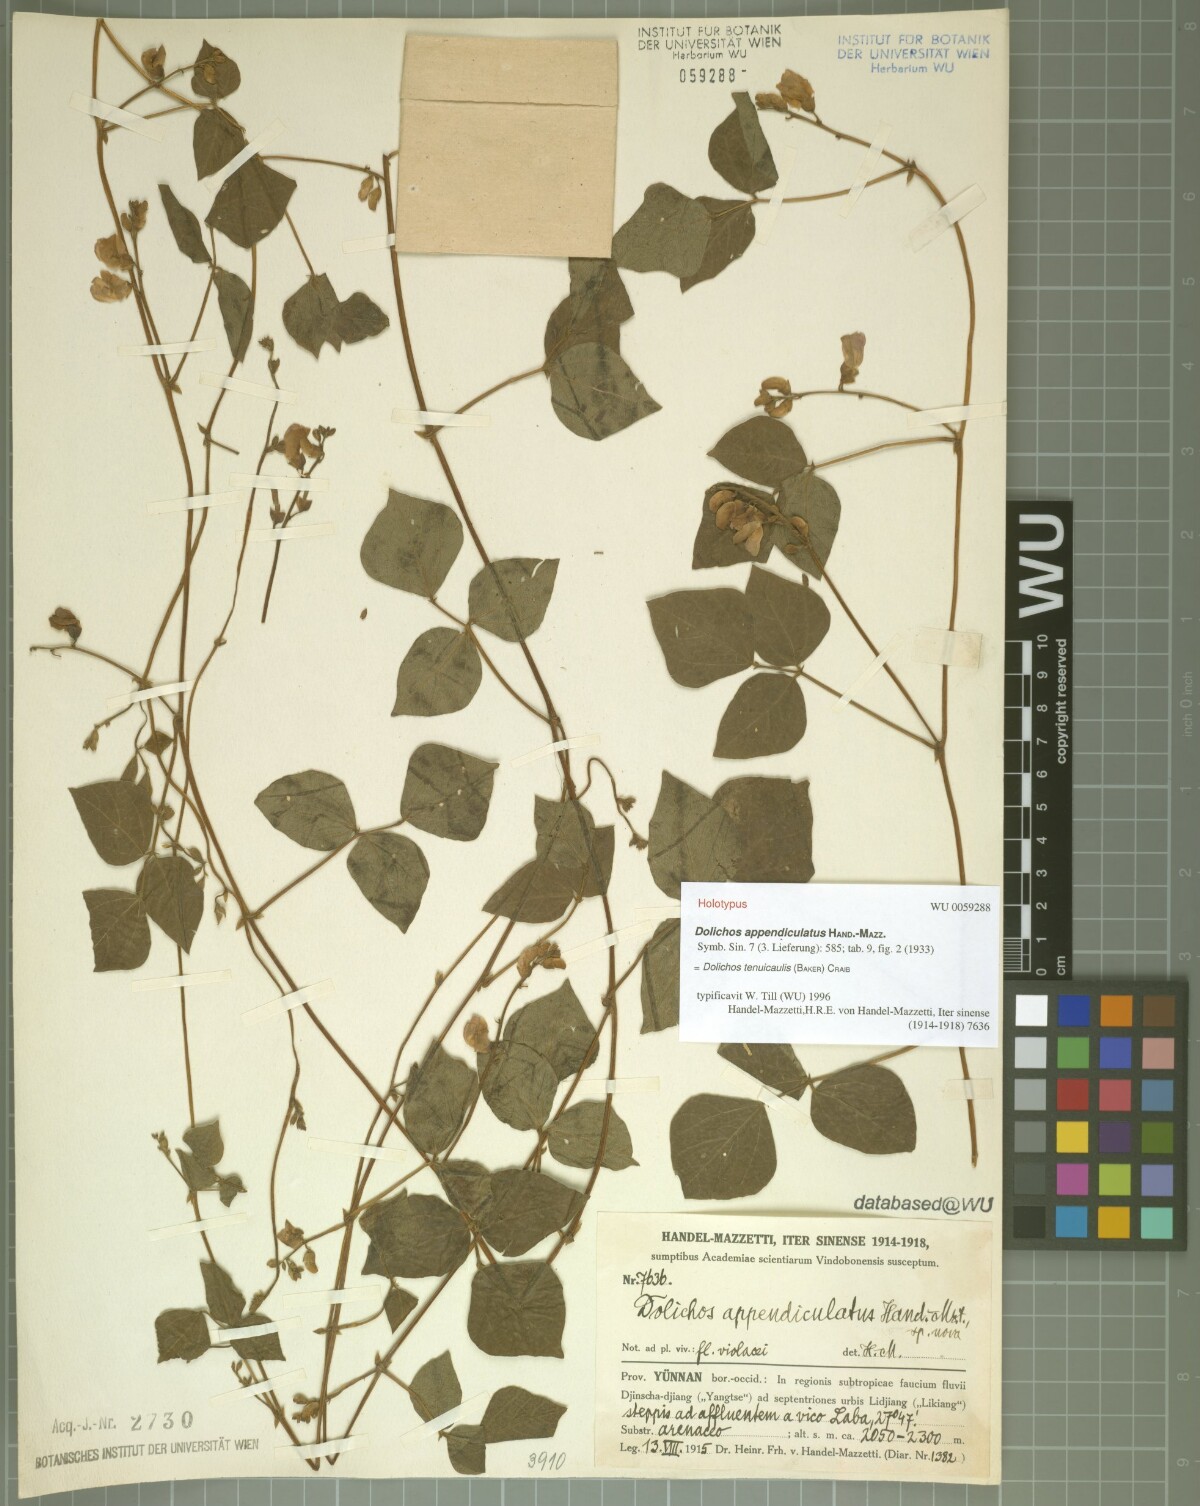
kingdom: Plantae
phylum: Tracheophyta
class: Magnoliopsida
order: Fabales
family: Fabaceae
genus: Dolichos
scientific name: Dolichos tenuicaulis
